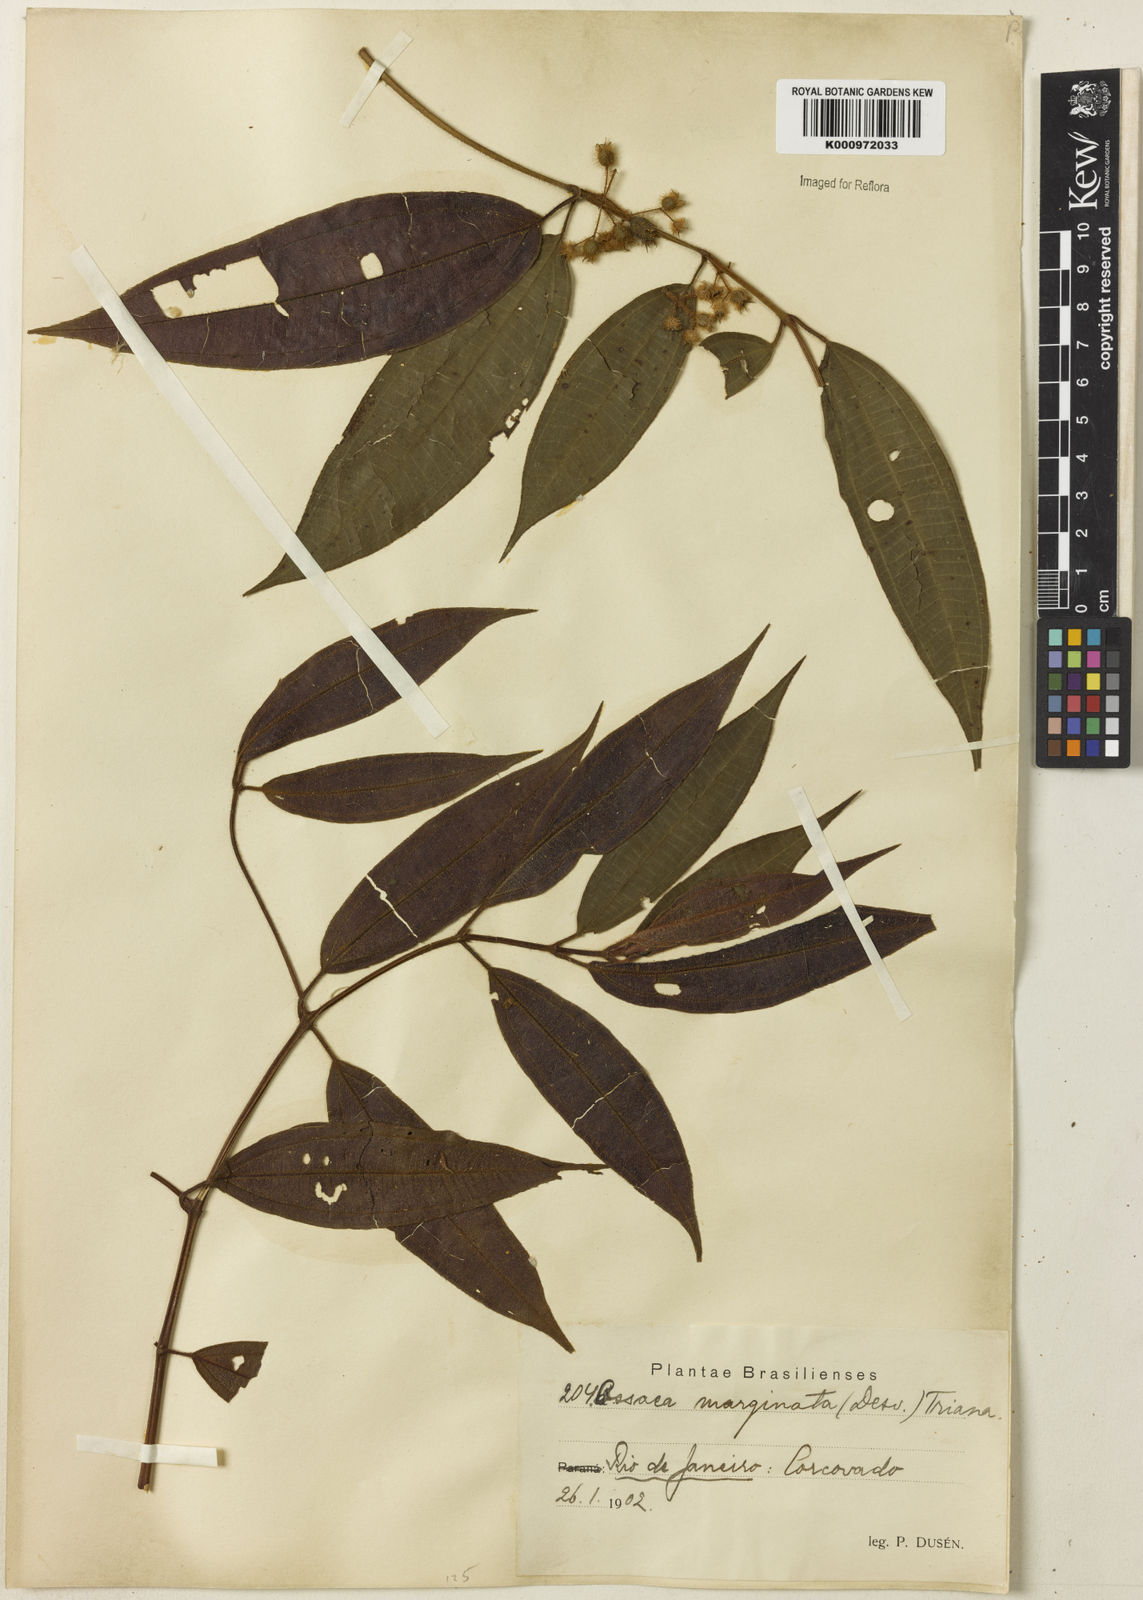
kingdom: Plantae
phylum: Tracheophyta
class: Magnoliopsida
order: Myrtales
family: Melastomataceae
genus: Miconia
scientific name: Miconia leamarginata
